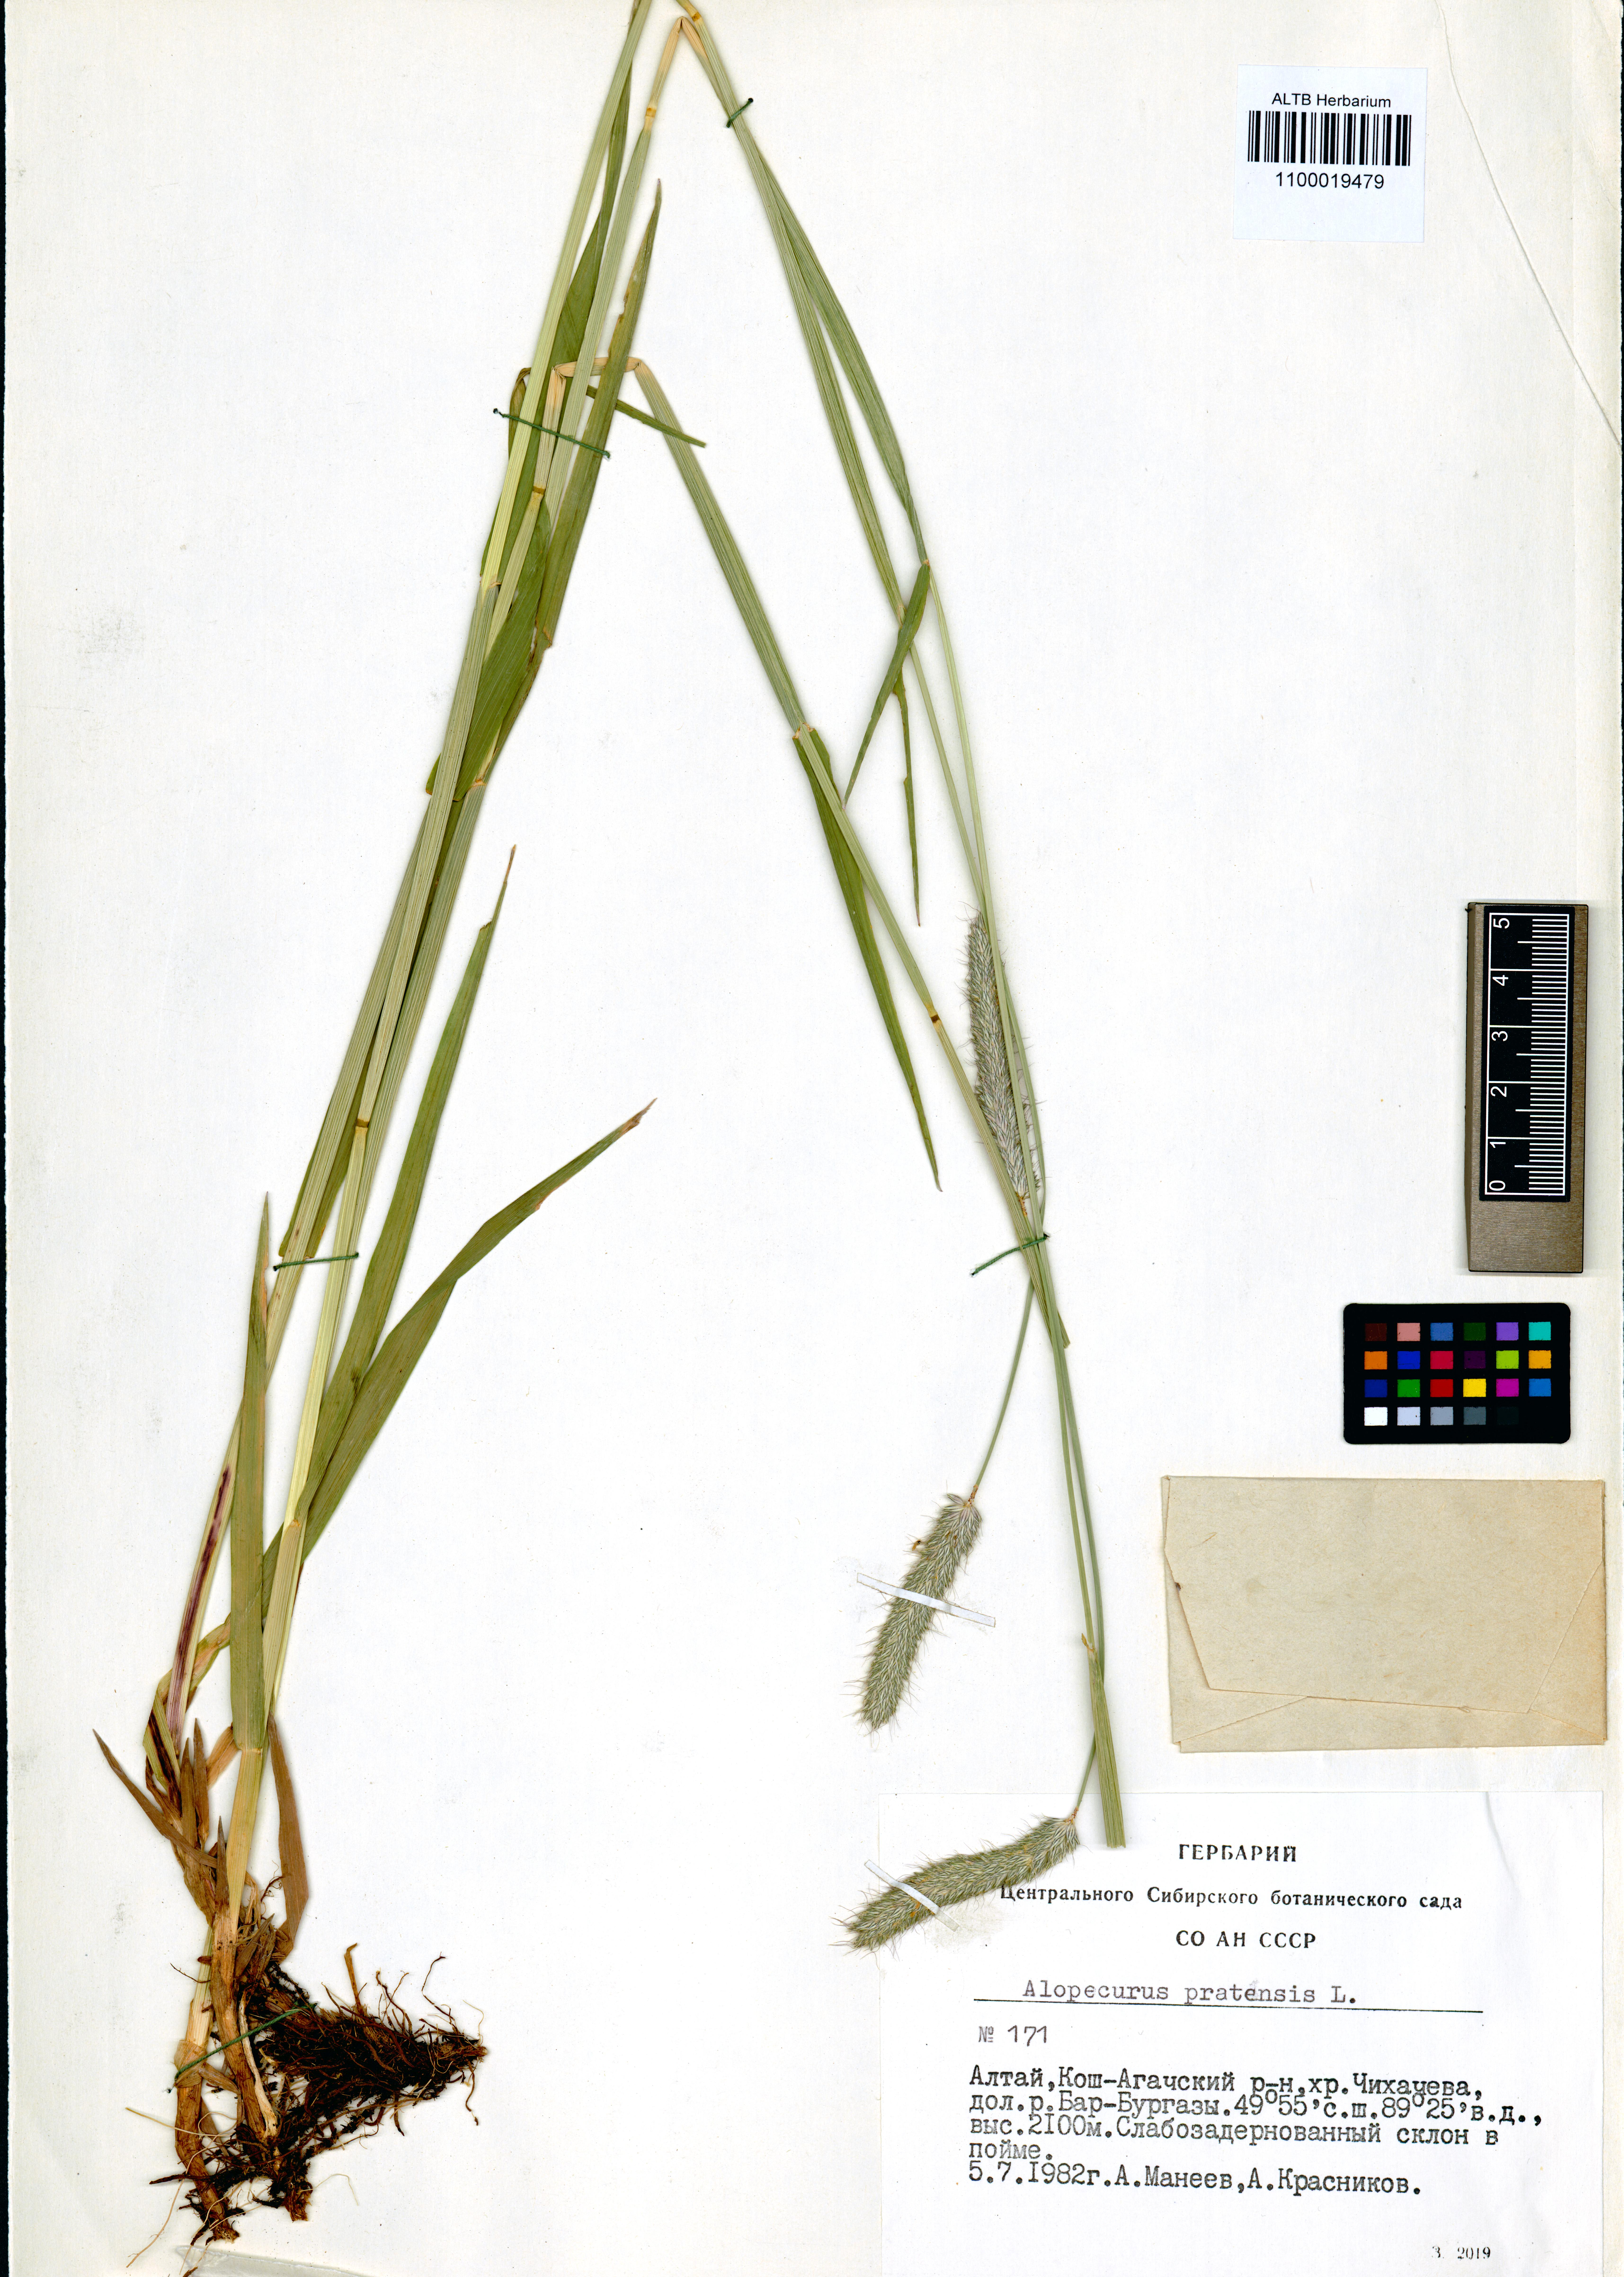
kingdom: Plantae
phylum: Tracheophyta
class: Liliopsida
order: Poales
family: Poaceae
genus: Alopecurus
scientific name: Alopecurus pratensis
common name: Meadow foxtail
